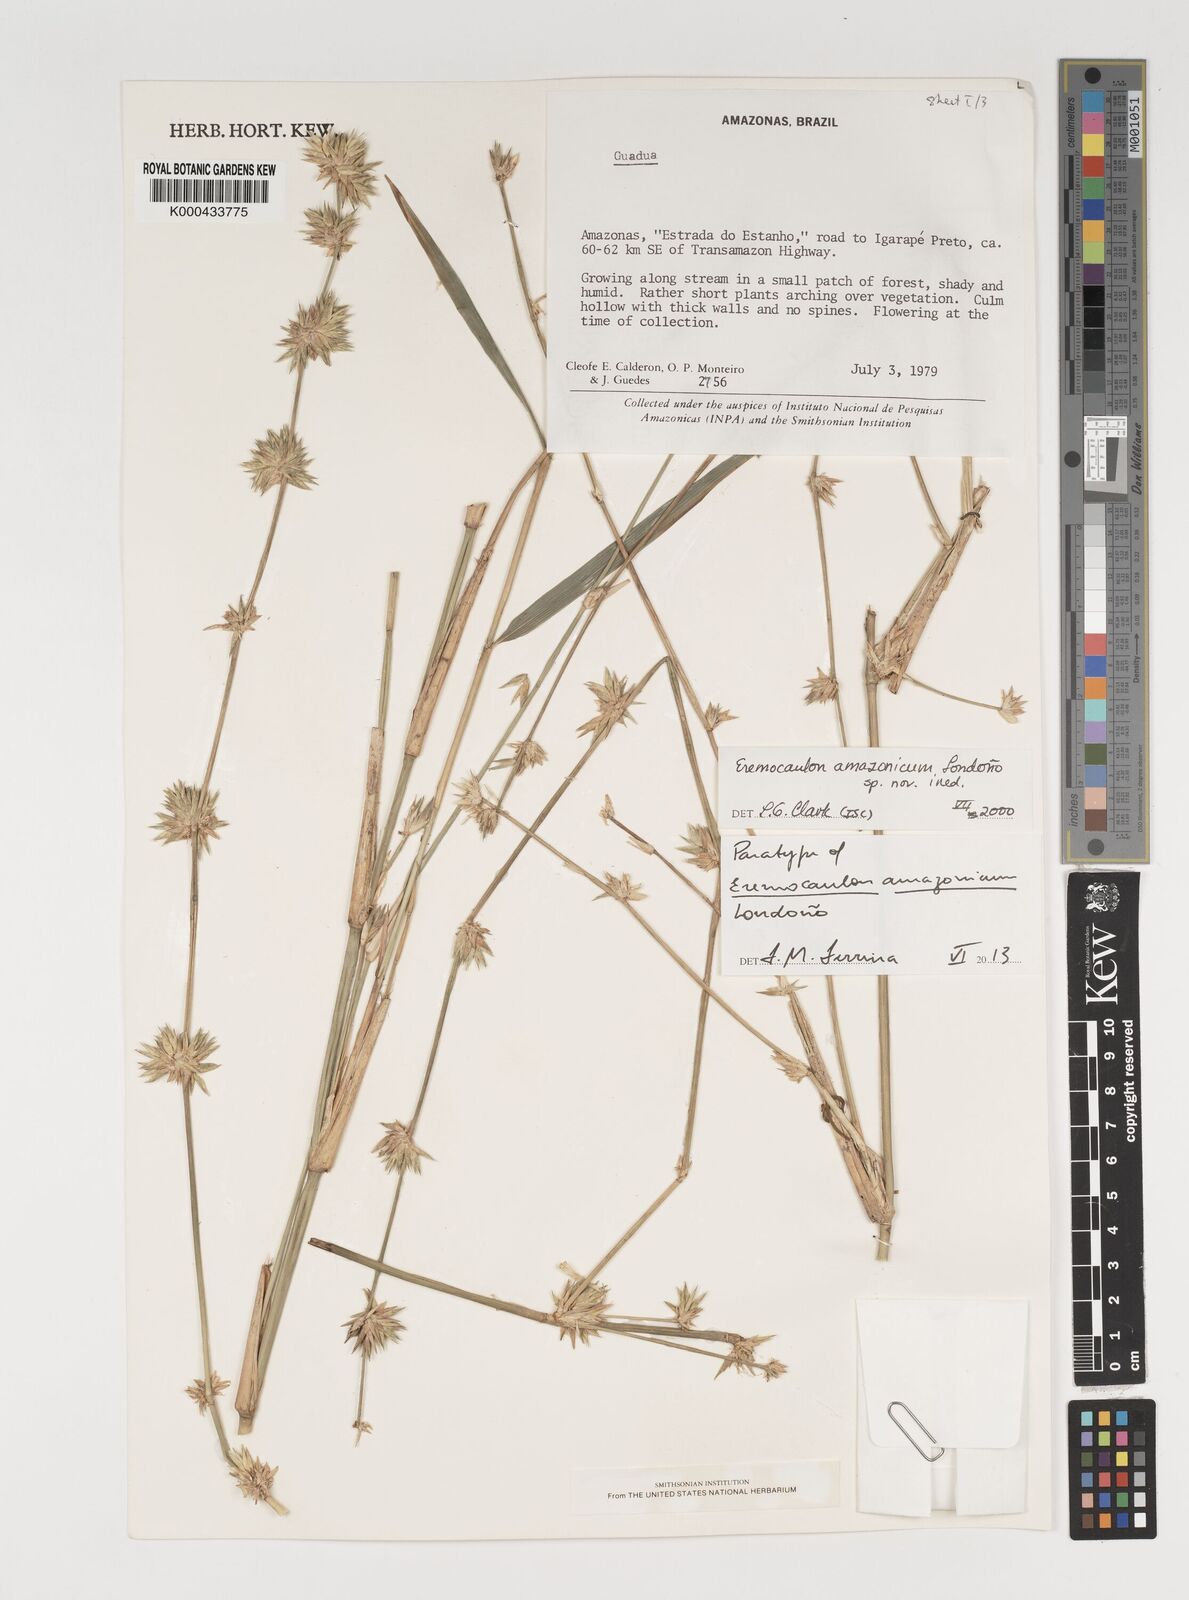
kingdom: Plantae
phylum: Tracheophyta
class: Liliopsida
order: Poales
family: Poaceae
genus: Eremocaulon
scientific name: Eremocaulon
